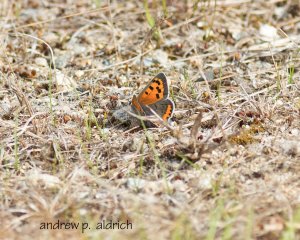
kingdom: Animalia
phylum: Arthropoda
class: Insecta
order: Lepidoptera
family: Lycaenidae
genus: Lycaena
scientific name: Lycaena phlaeas
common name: American Copper
